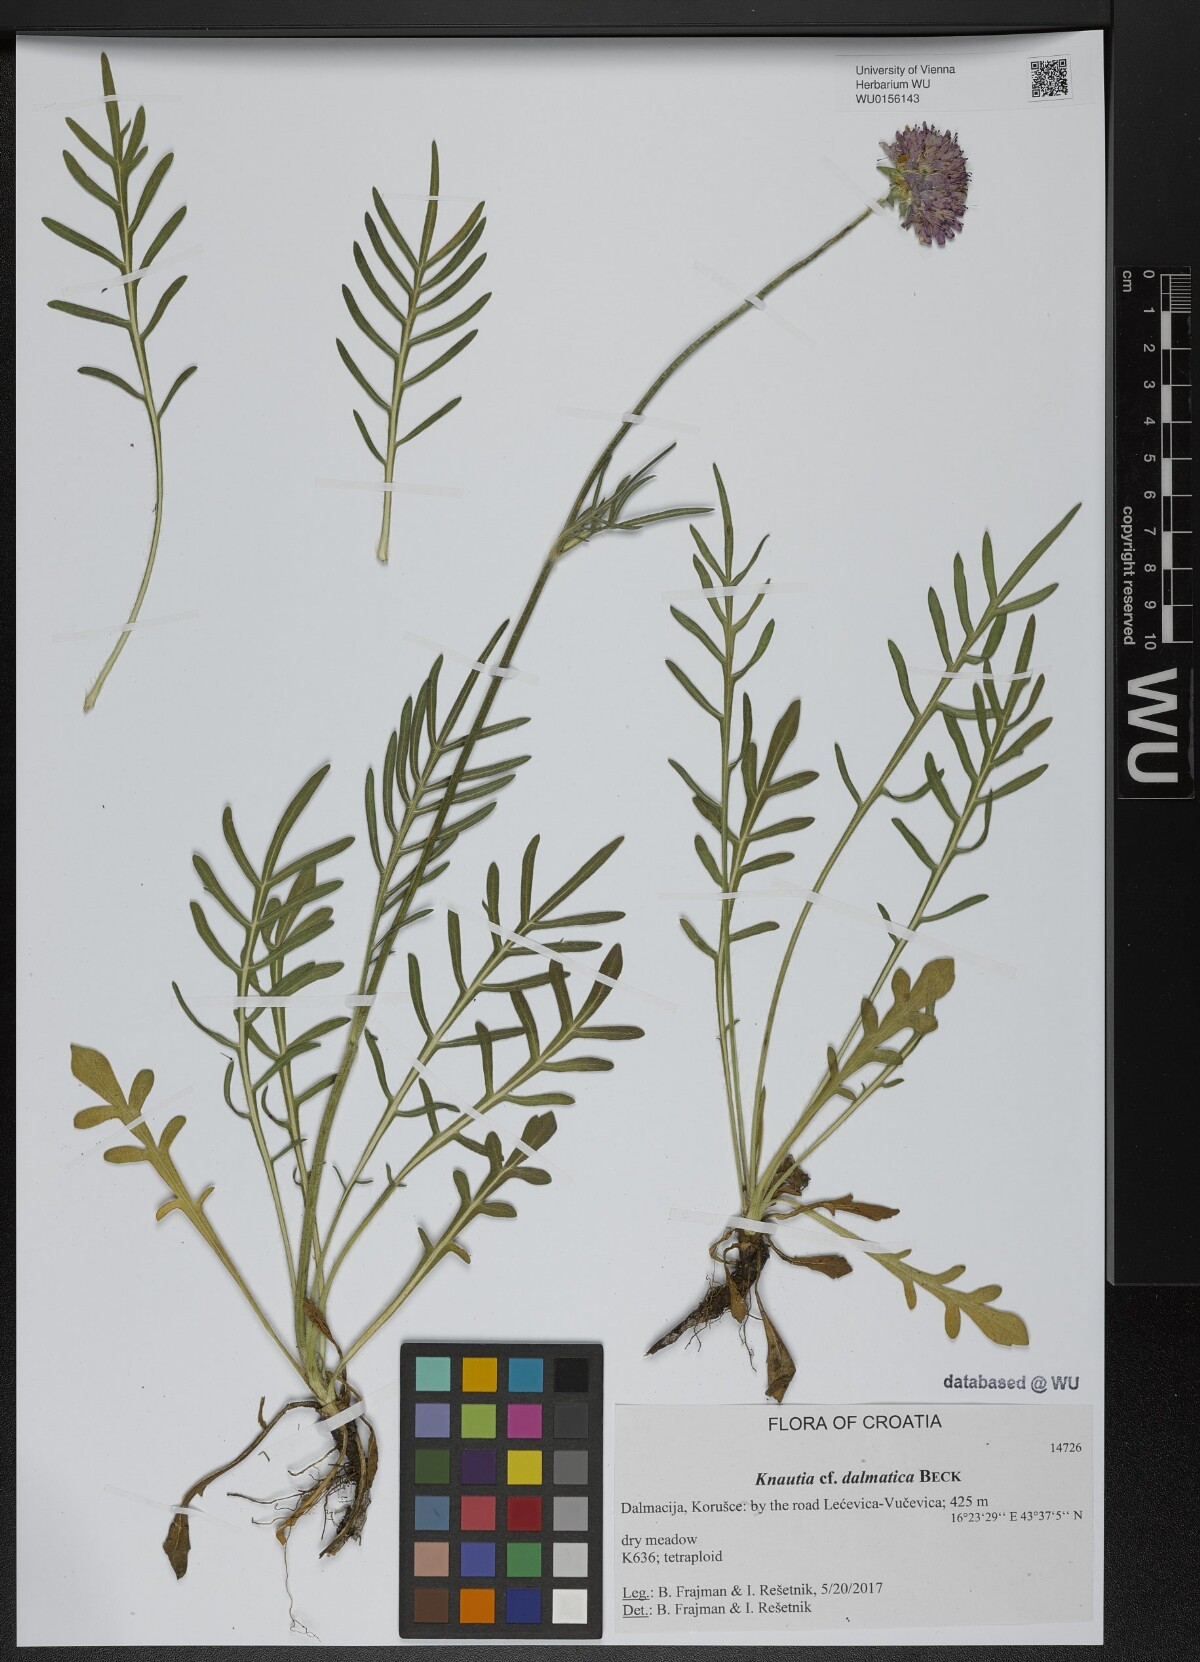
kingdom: Plantae
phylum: Tracheophyta
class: Magnoliopsida
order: Dipsacales
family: Caprifoliaceae
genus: Knautia
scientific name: Knautia dalmatica
